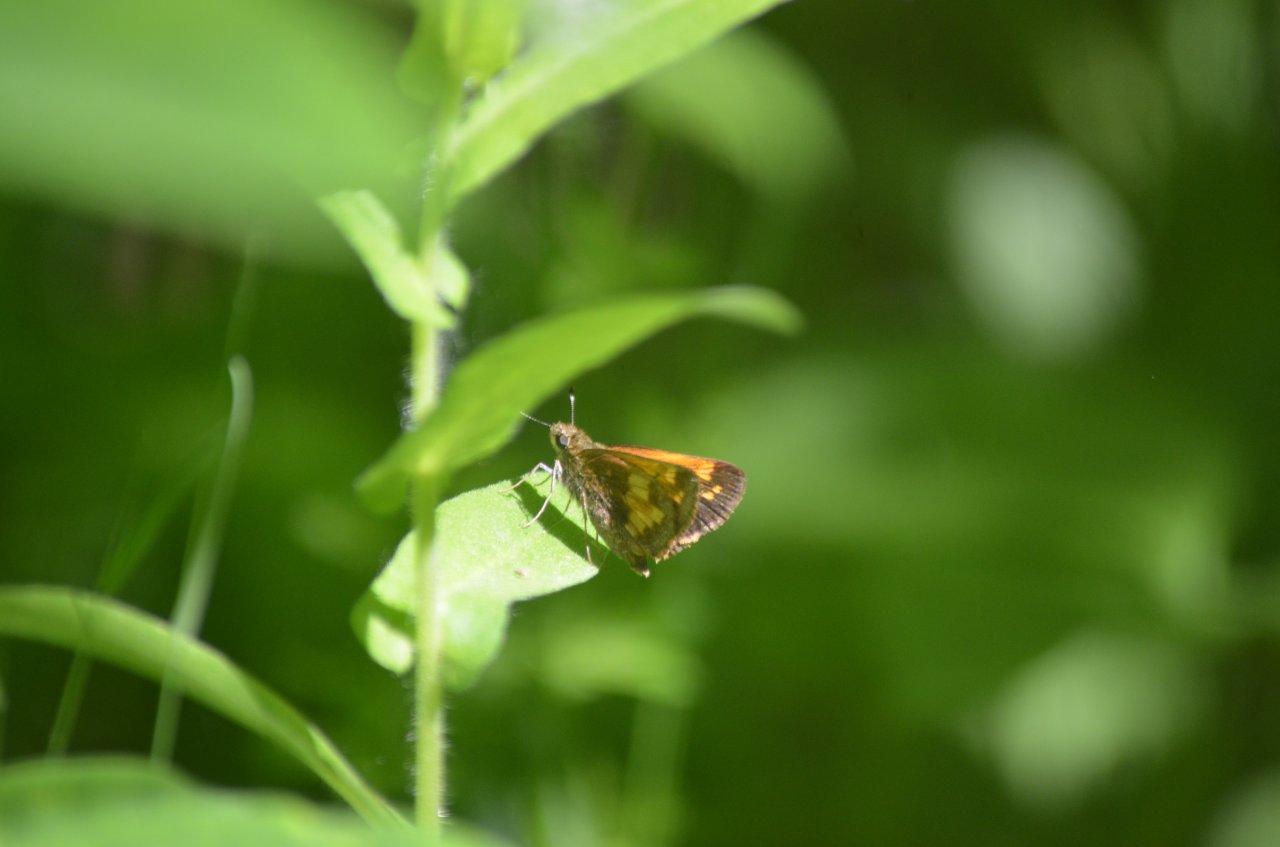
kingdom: Animalia
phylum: Arthropoda
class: Insecta
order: Lepidoptera
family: Hesperiidae
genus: Lon
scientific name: Lon hobomok
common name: Hobomok Skipper
